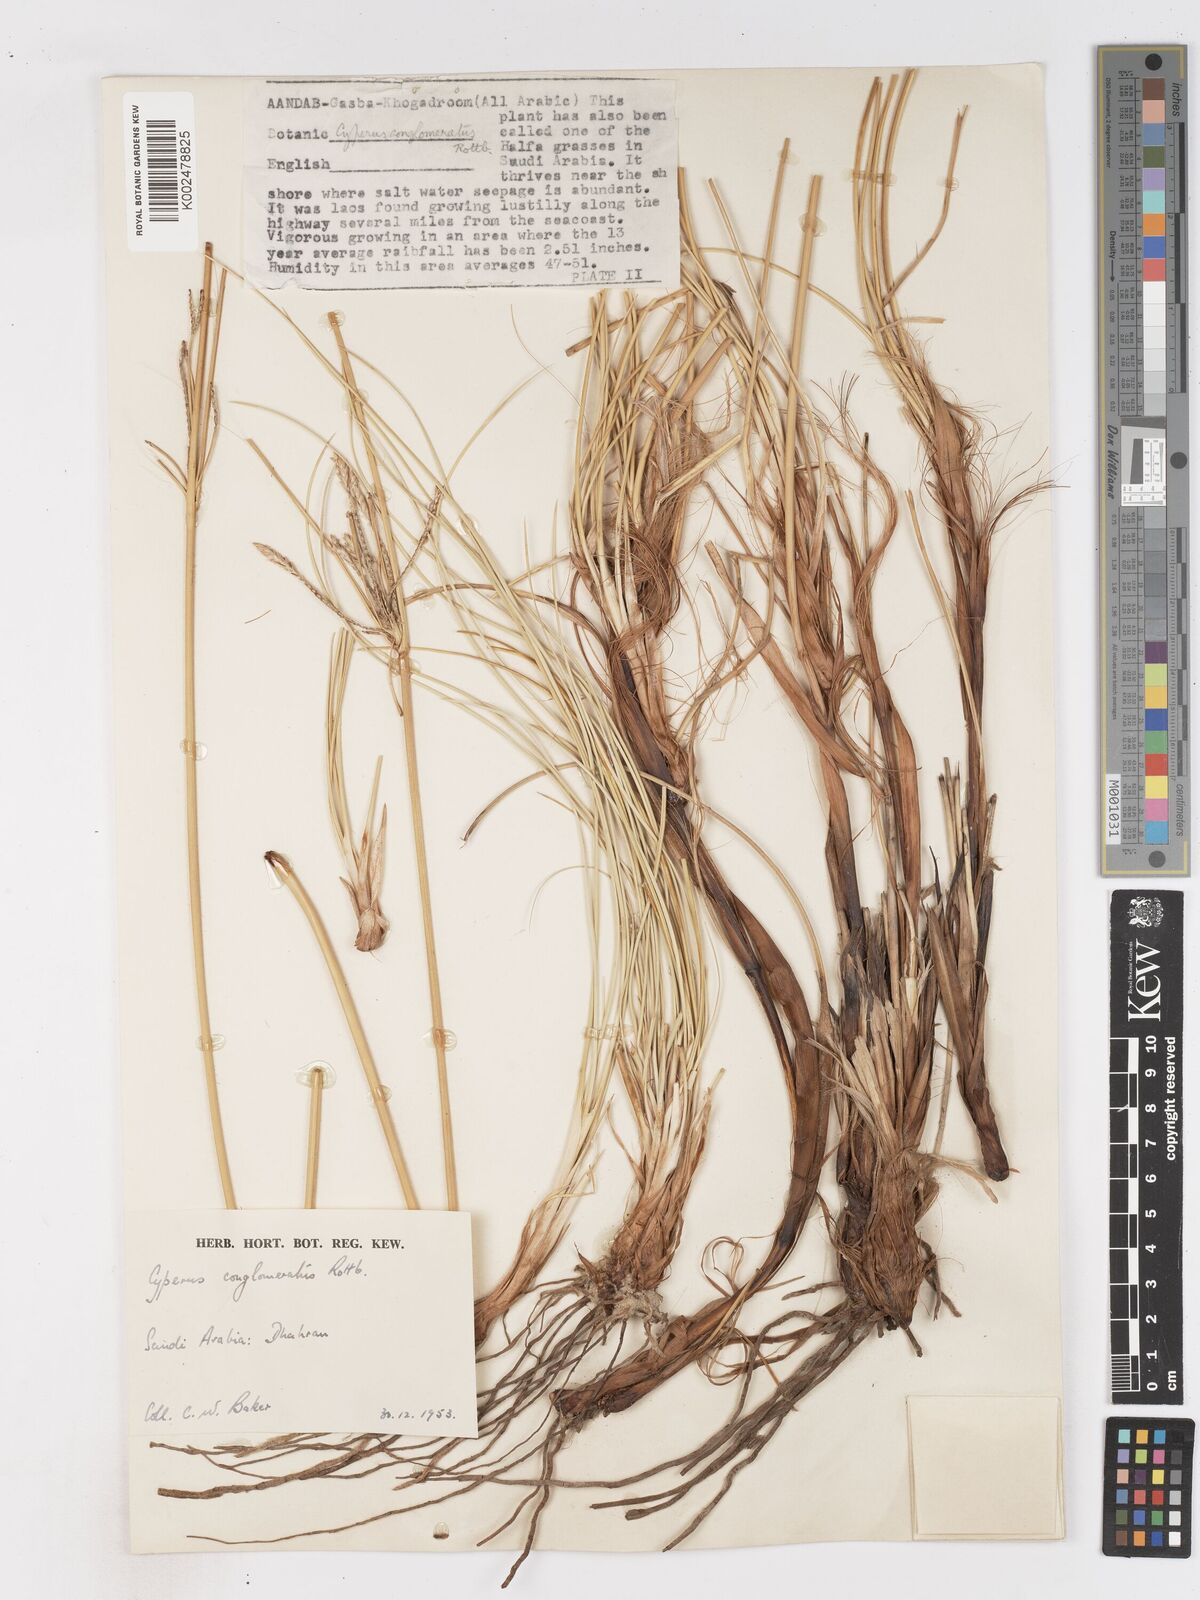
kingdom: Plantae
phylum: Tracheophyta
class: Liliopsida
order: Poales
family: Cyperaceae
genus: Cyperus
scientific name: Cyperus aucheri
